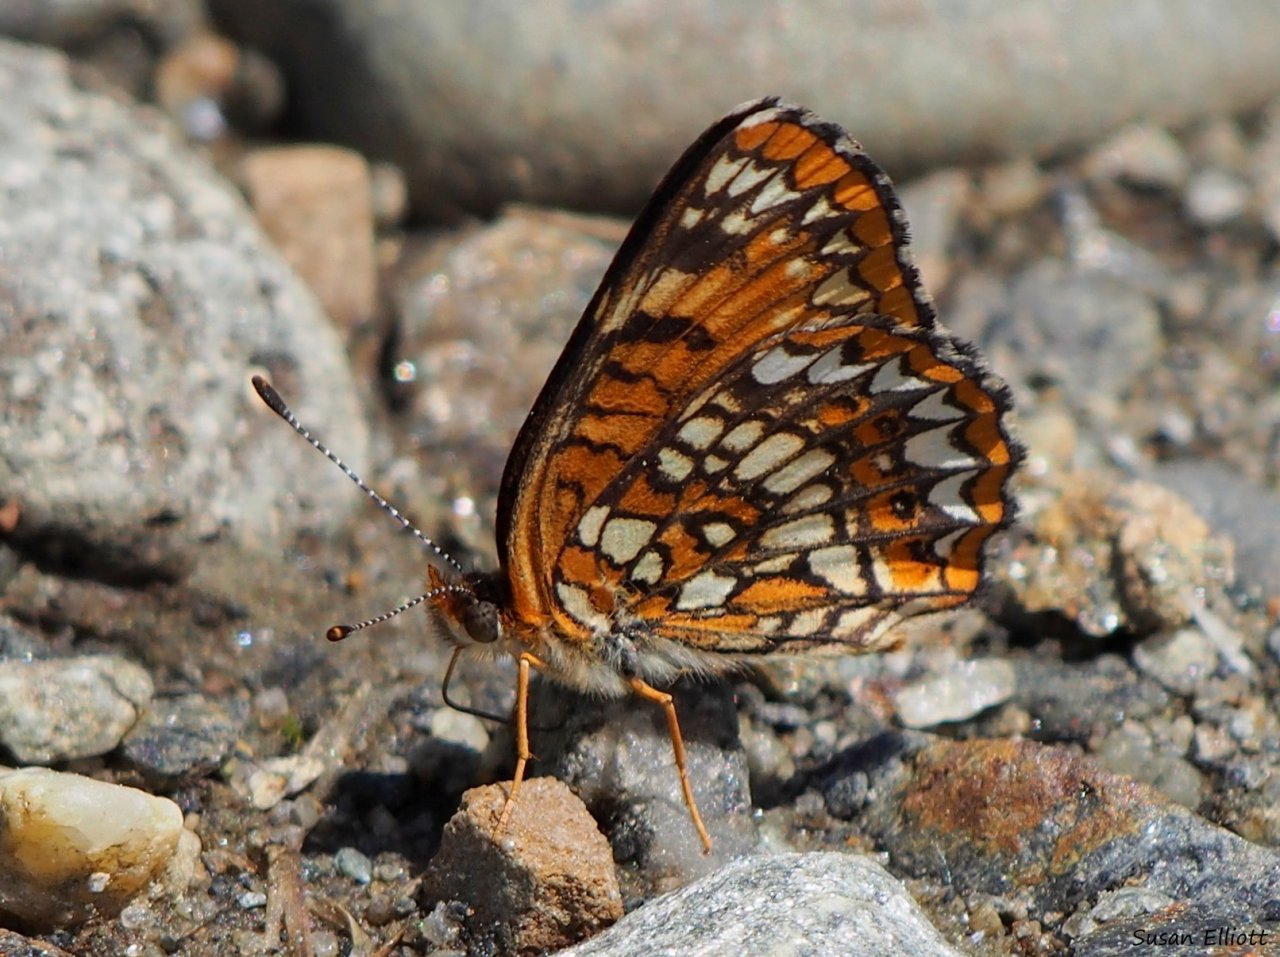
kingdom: Animalia
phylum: Arthropoda
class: Insecta
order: Lepidoptera
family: Nymphalidae
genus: Chlosyne
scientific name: Chlosyne harrisii
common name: Harris's Checkerspot
